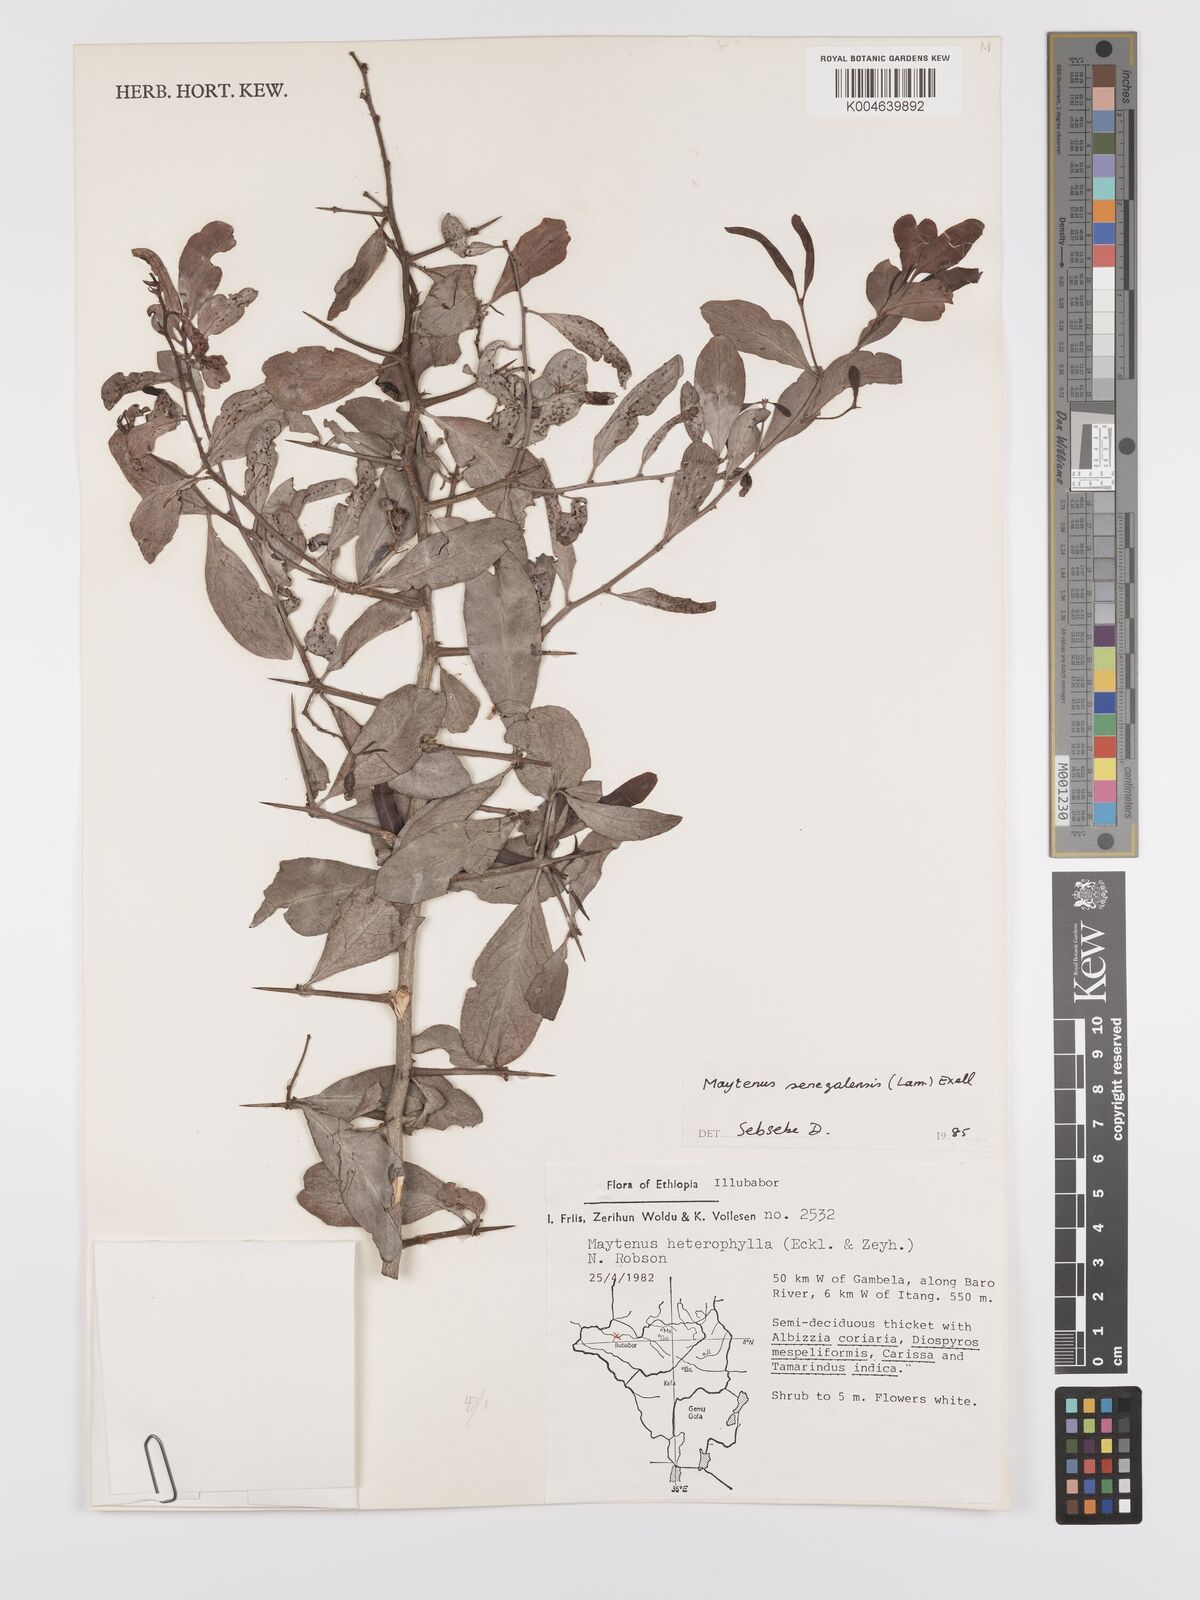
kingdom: Plantae
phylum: Tracheophyta
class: Magnoliopsida
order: Celastrales
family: Celastraceae
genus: Gymnosporia
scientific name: Gymnosporia senegalensis
